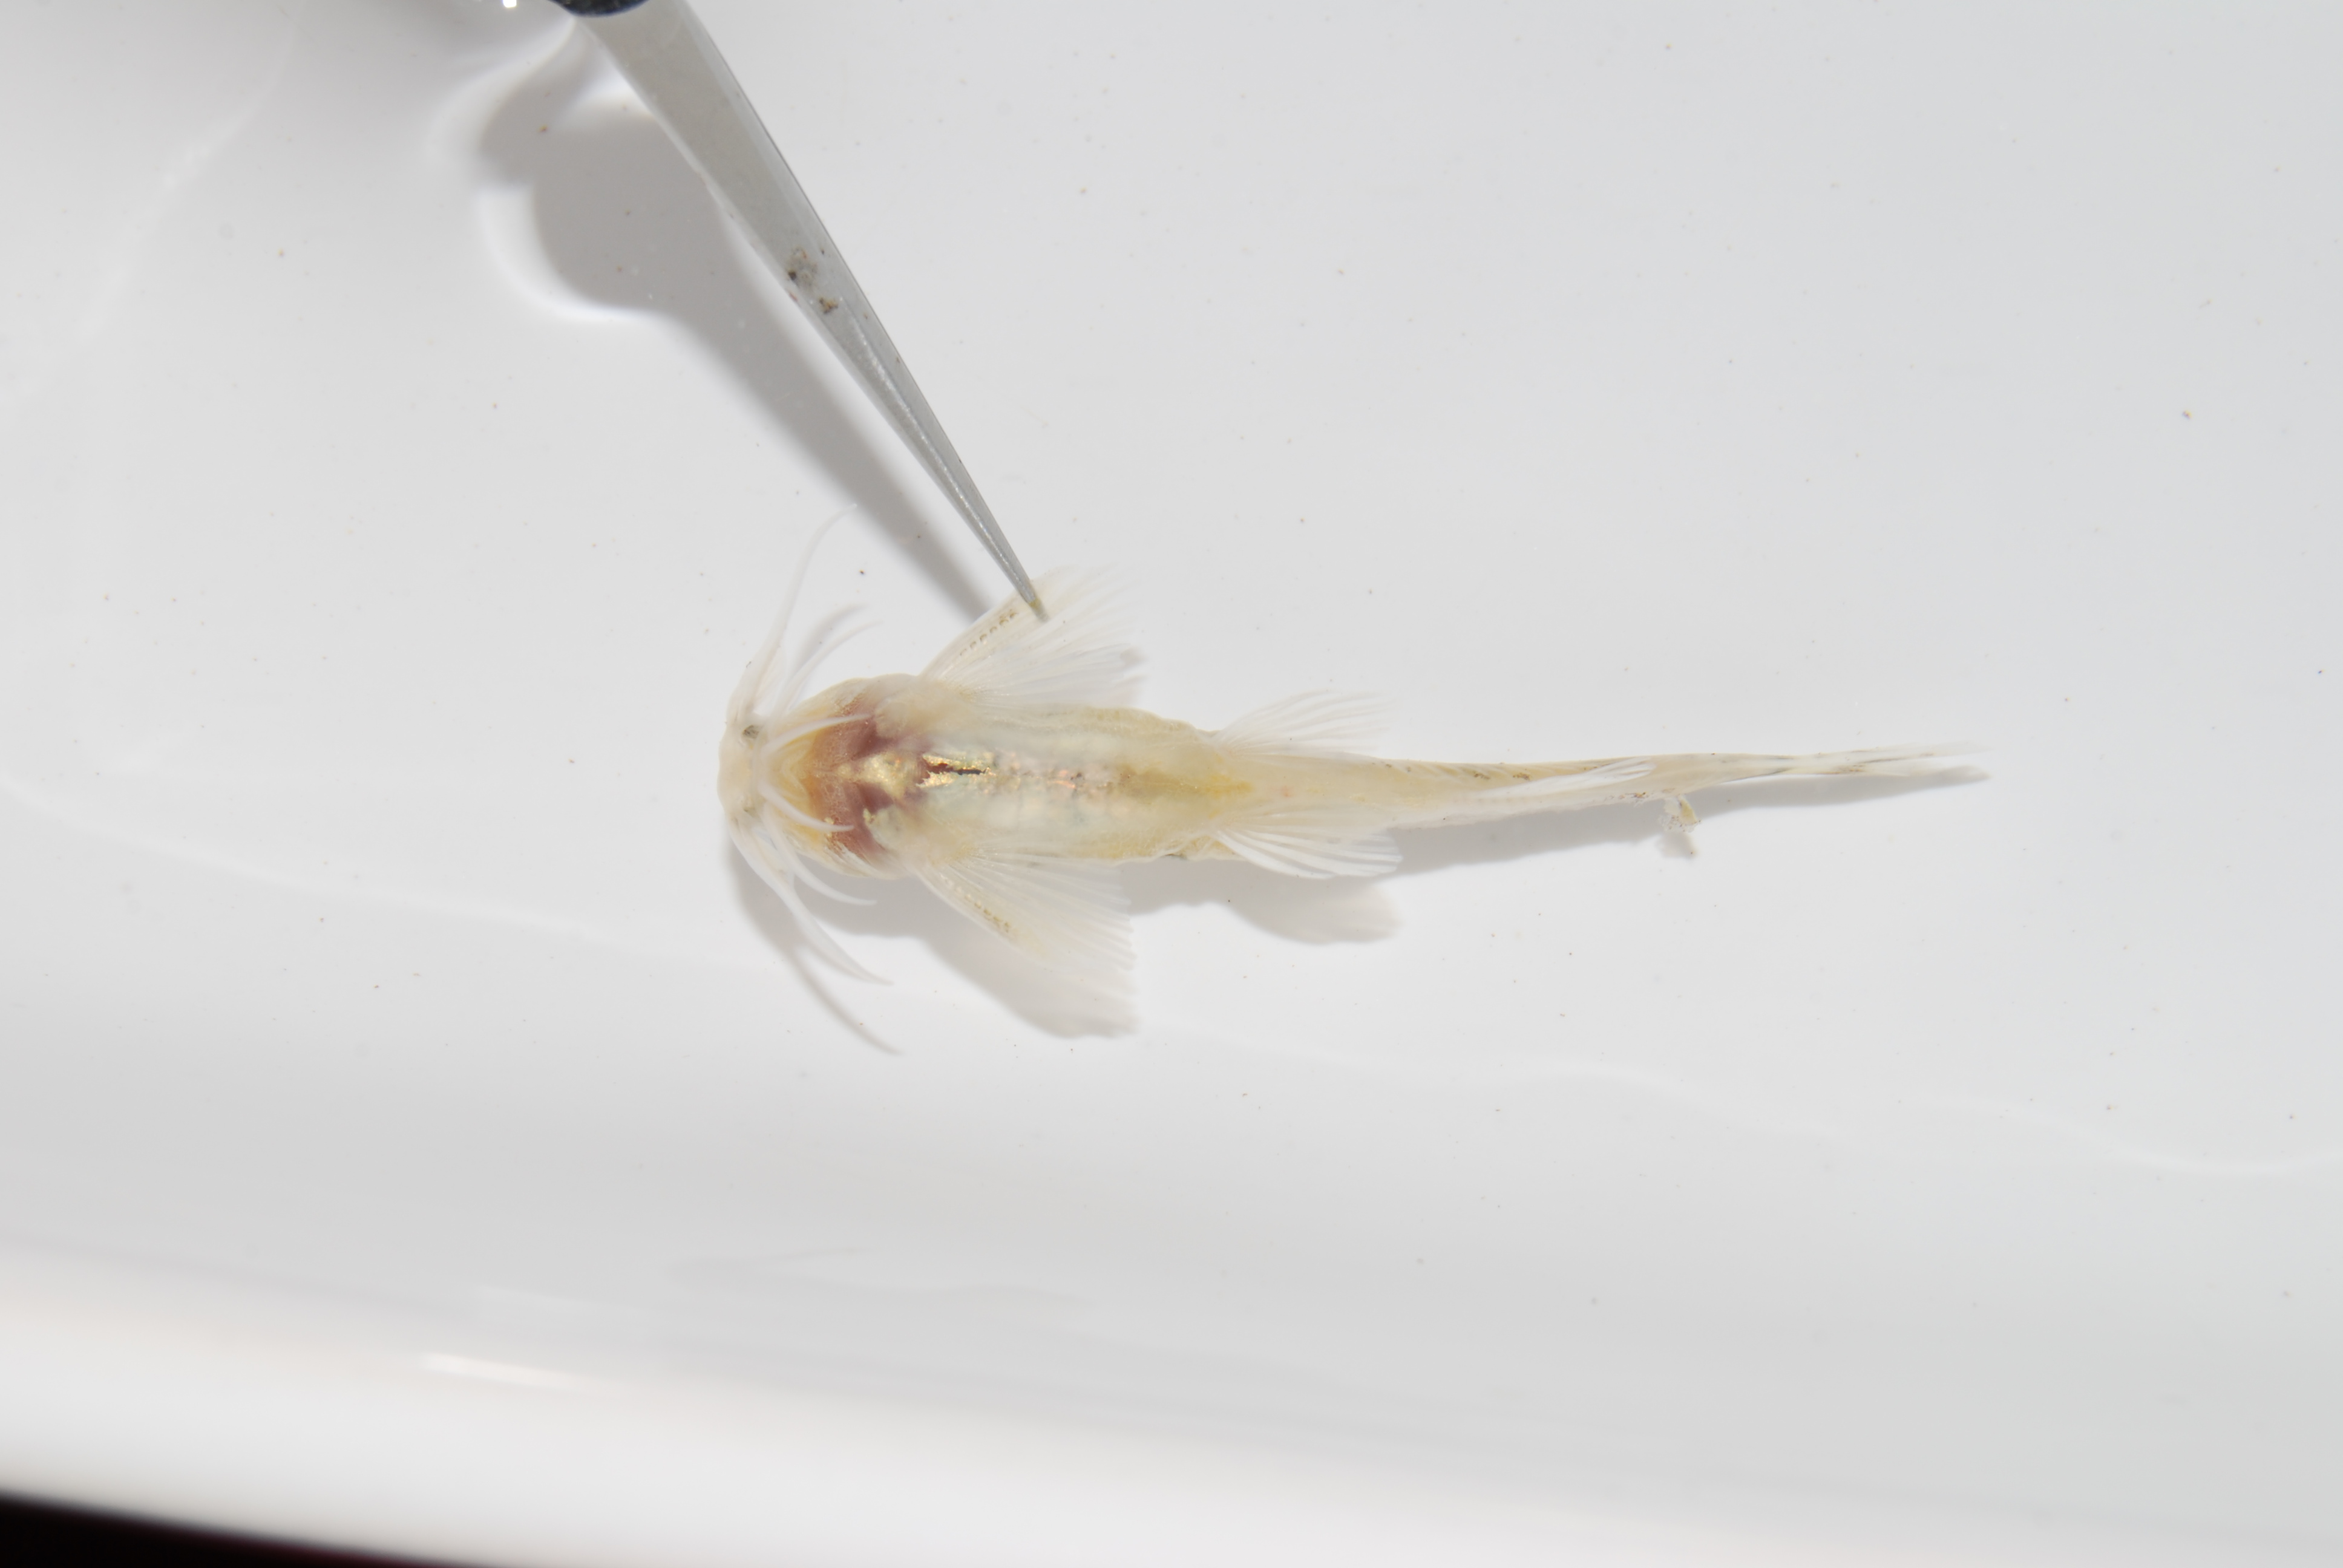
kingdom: Animalia
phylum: Chordata
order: Siluriformes
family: Amphiliidae
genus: Zaireichthys
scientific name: Zaireichthys monomotapa
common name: Eastern sand catlet
